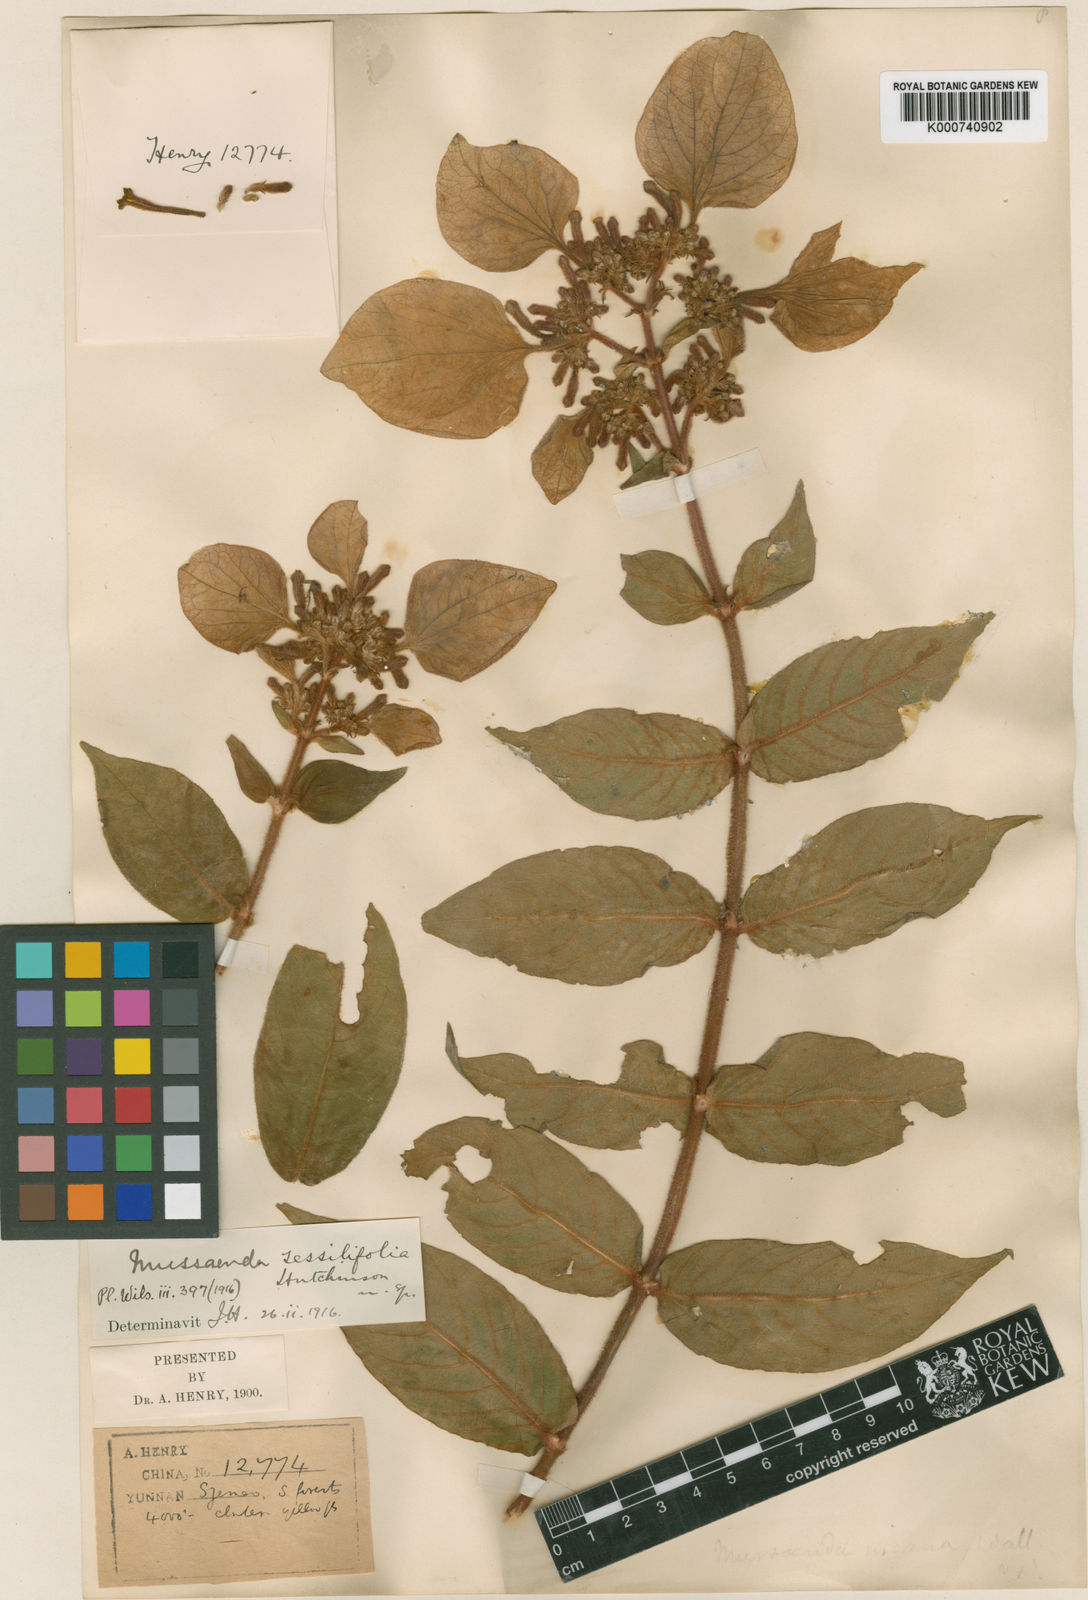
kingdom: Plantae
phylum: Tracheophyta
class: Magnoliopsida
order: Gentianales
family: Rubiaceae
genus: Mussaenda
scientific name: Mussaenda sessilifolia
